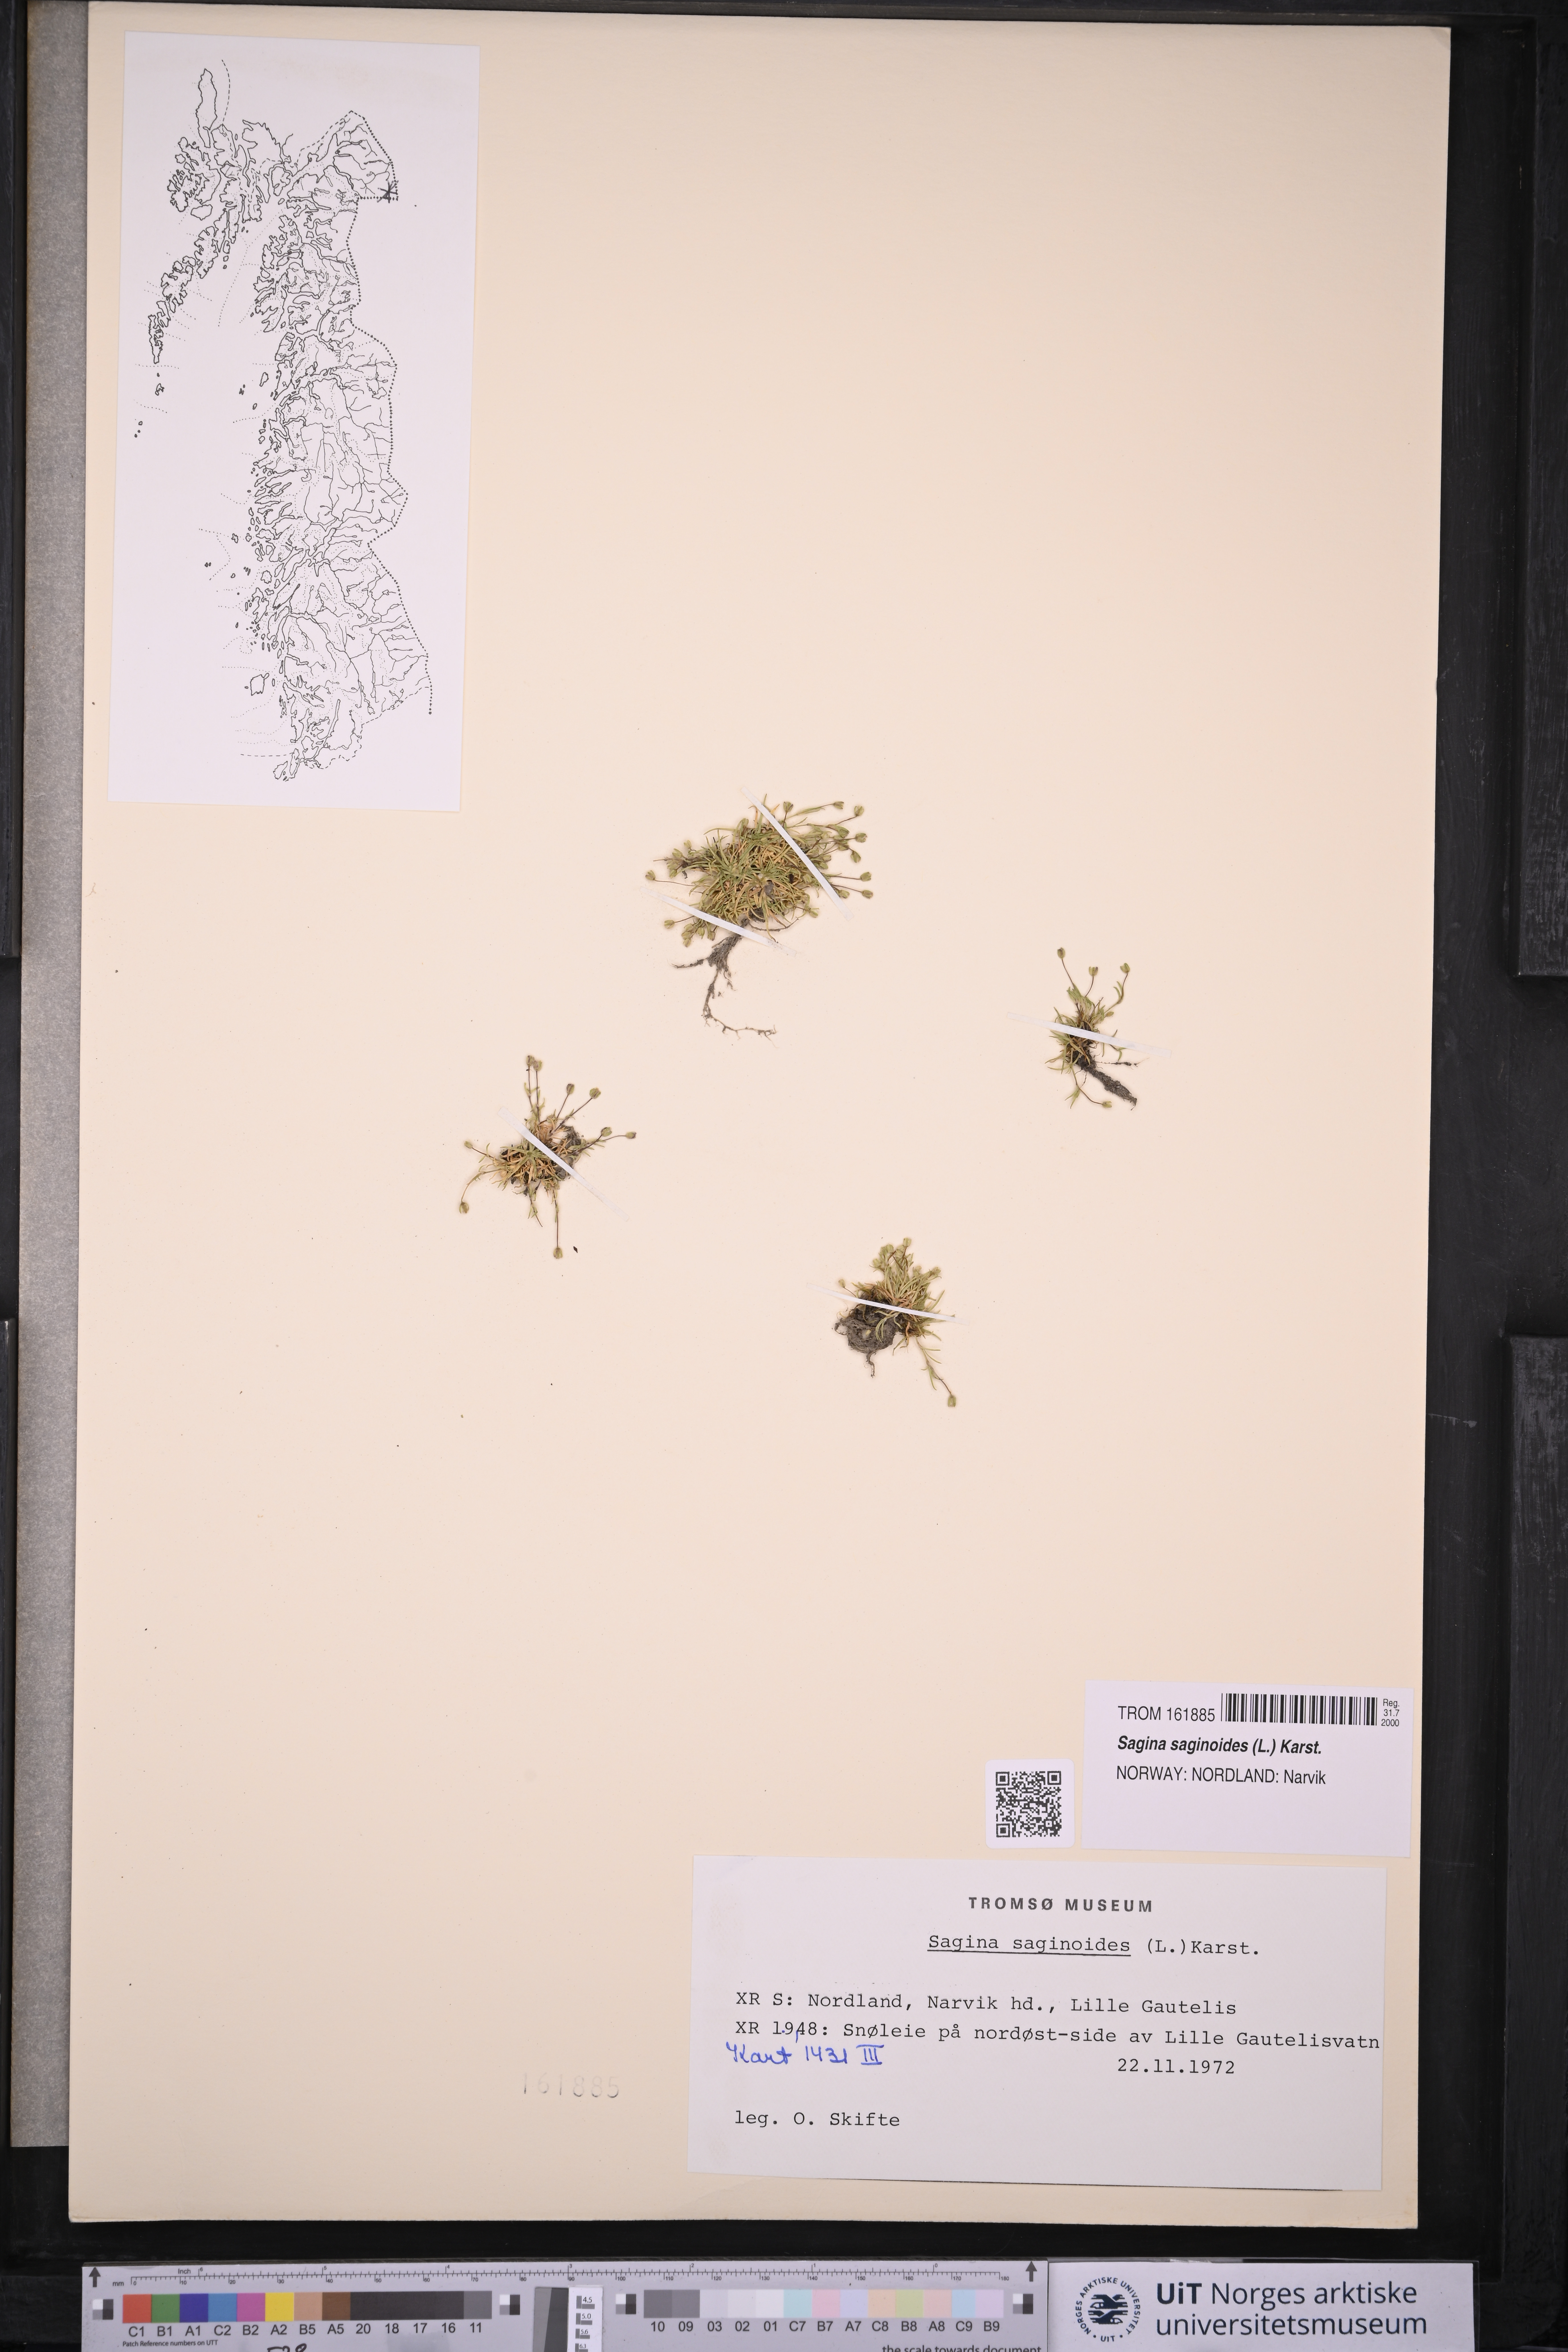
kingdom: Plantae
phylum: Tracheophyta
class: Magnoliopsida
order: Caryophyllales
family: Caryophyllaceae
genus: Sagina
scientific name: Sagina saginoides
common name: Alpine pearlwort
